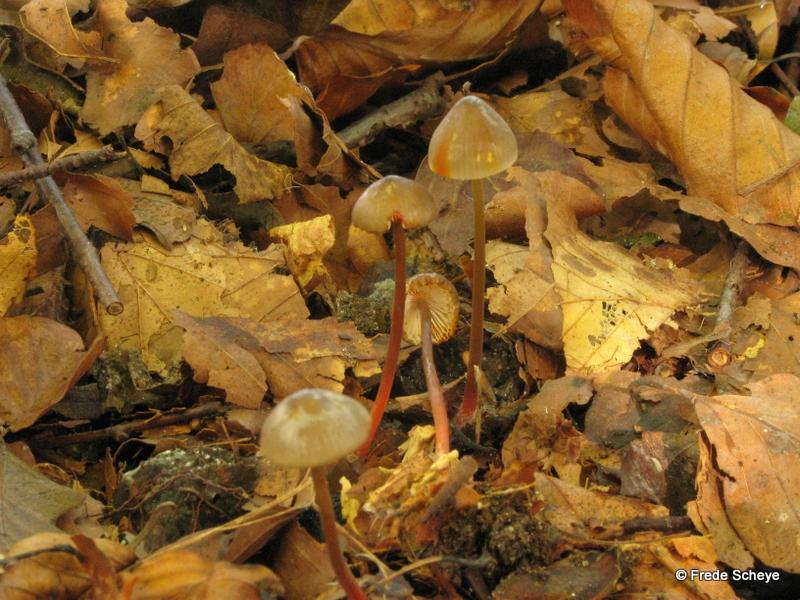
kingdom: Fungi
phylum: Basidiomycota
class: Agaricomycetes
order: Agaricales
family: Mycenaceae
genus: Mycena
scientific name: Mycena crocata
